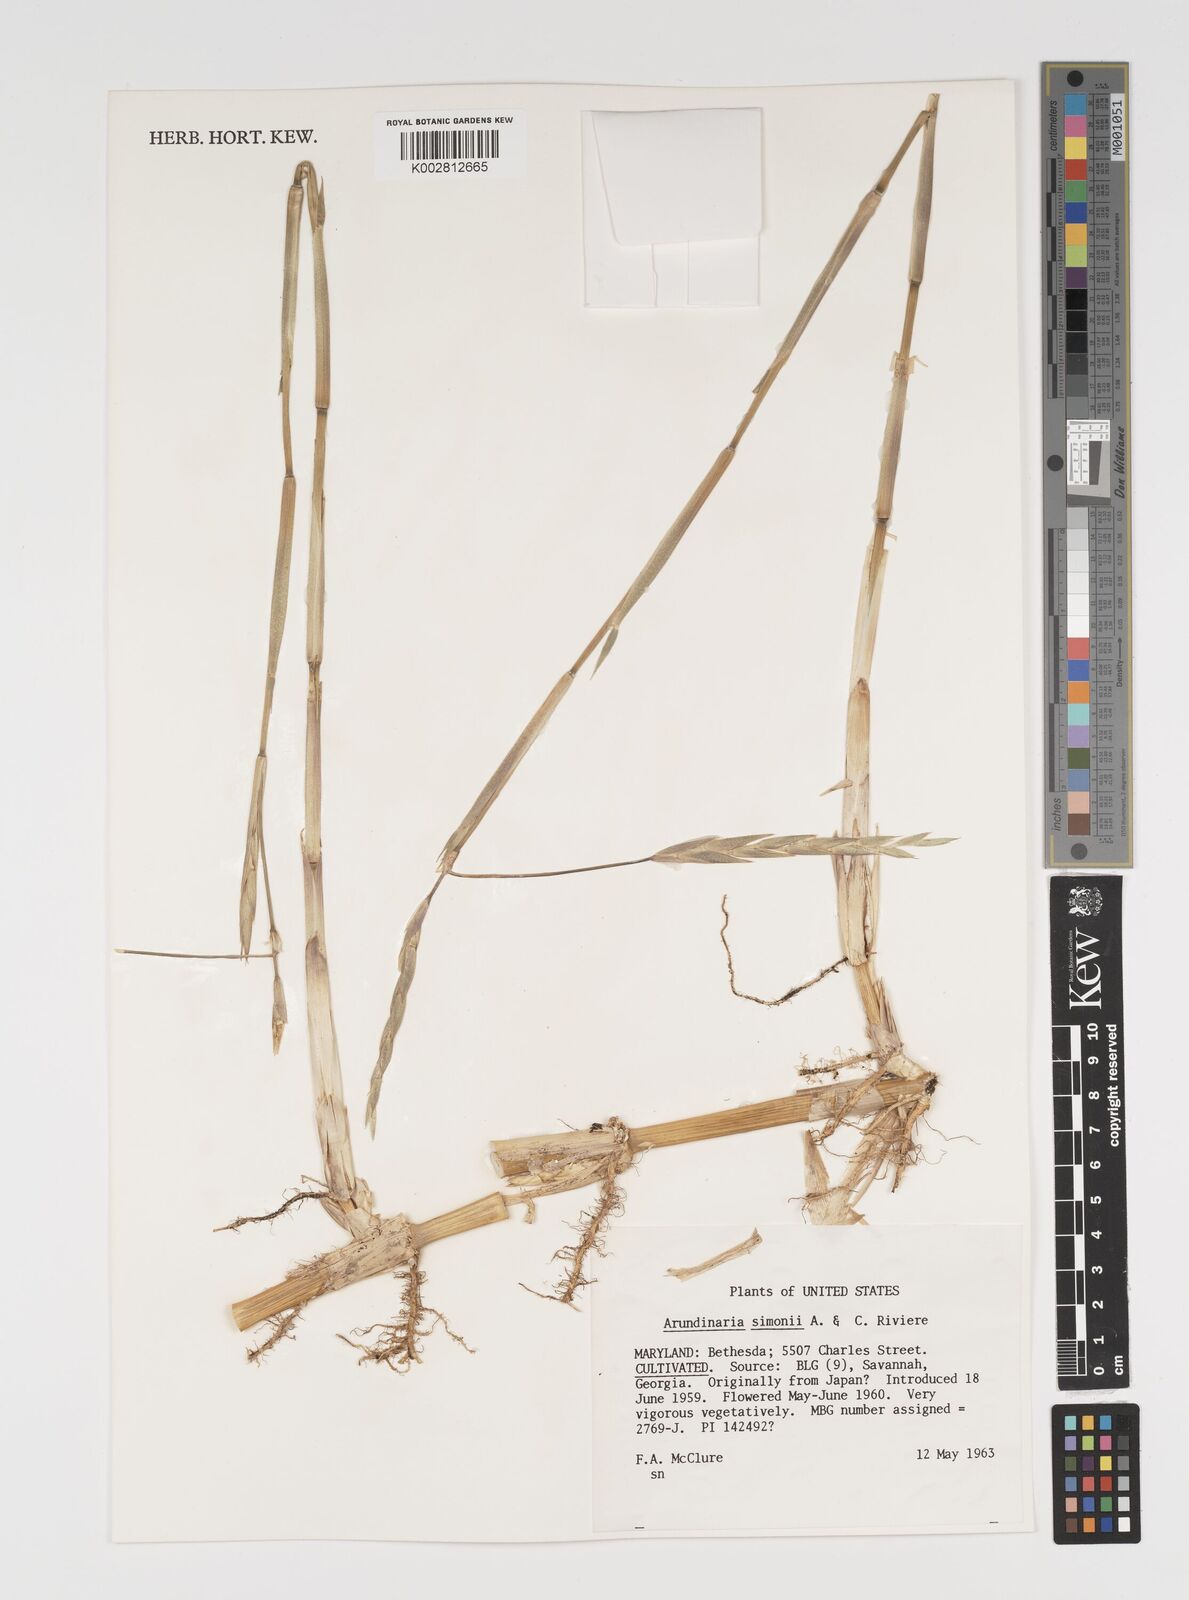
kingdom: Plantae
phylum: Tracheophyta
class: Liliopsida
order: Poales
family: Poaceae
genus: Pleioblastus
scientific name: Pleioblastus simonii
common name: Simon bamboo
